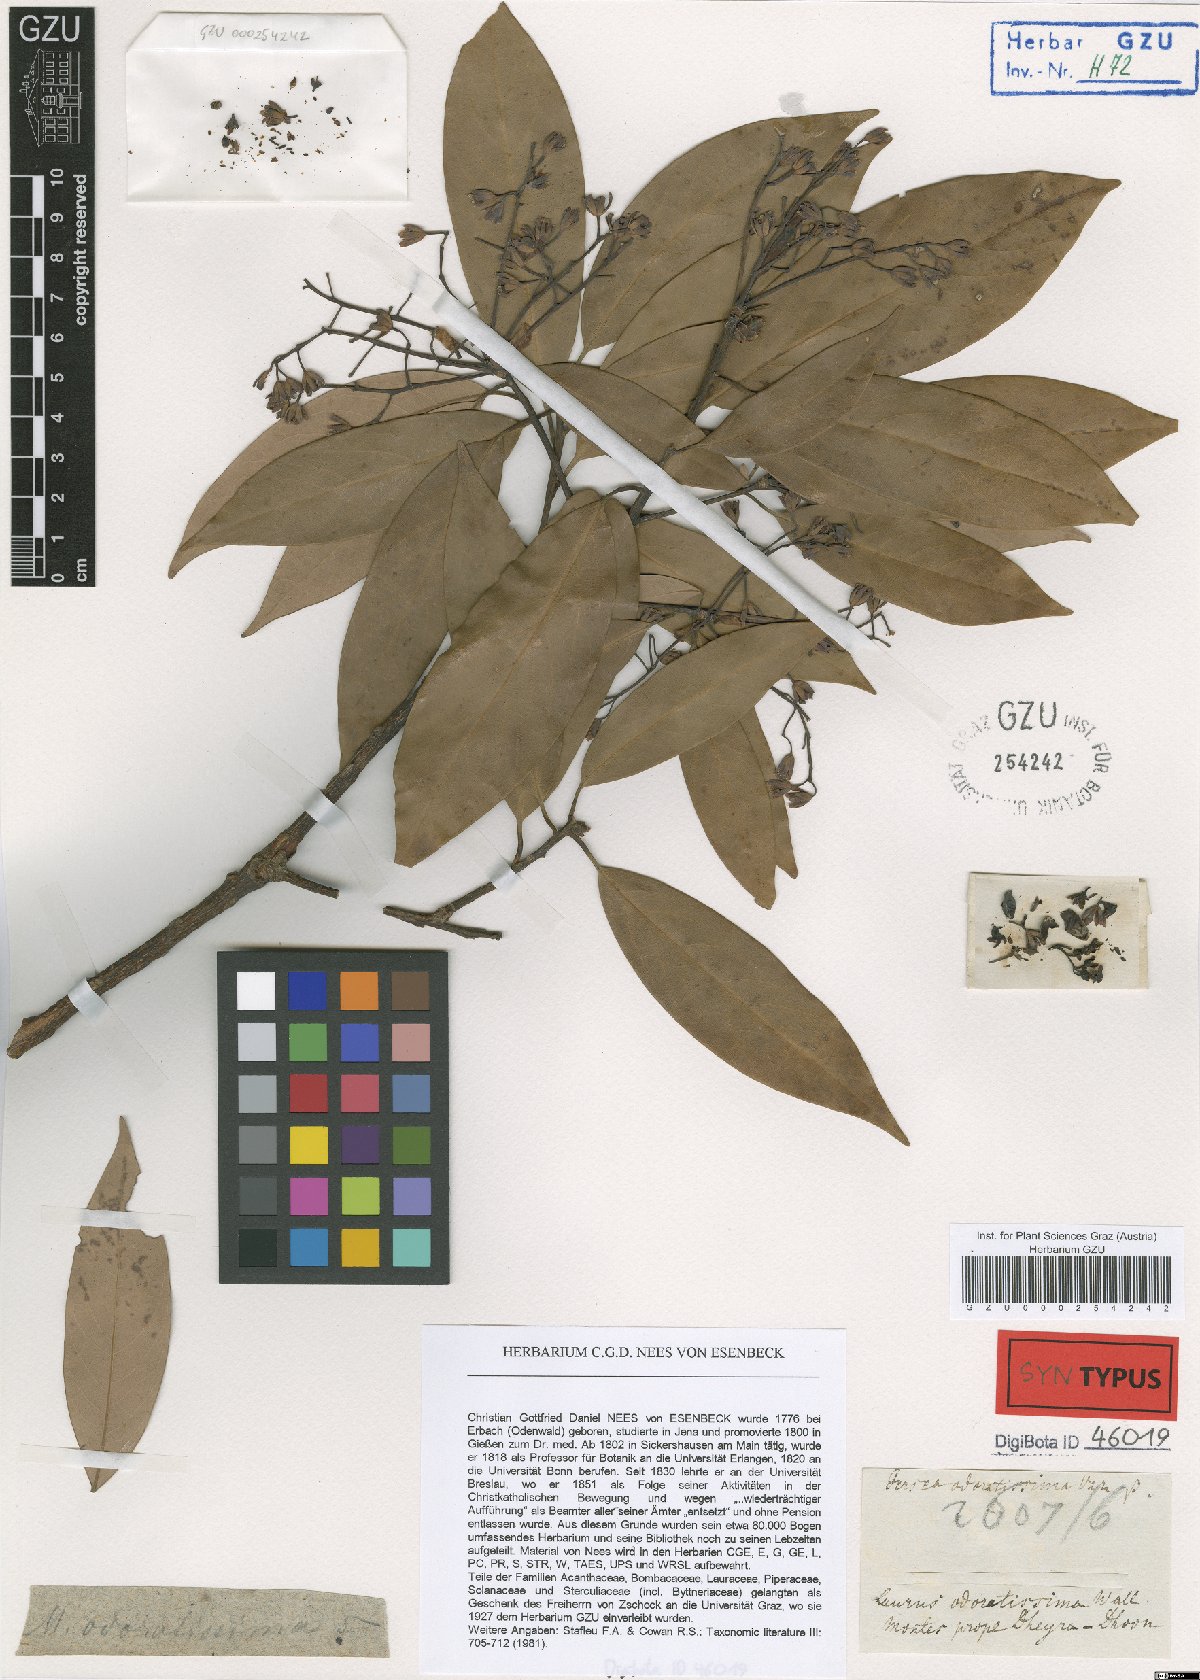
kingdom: Plantae
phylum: Tracheophyta
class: Magnoliopsida
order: Laurales
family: Lauraceae
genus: Machilus
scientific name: Machilus odoratissimus
